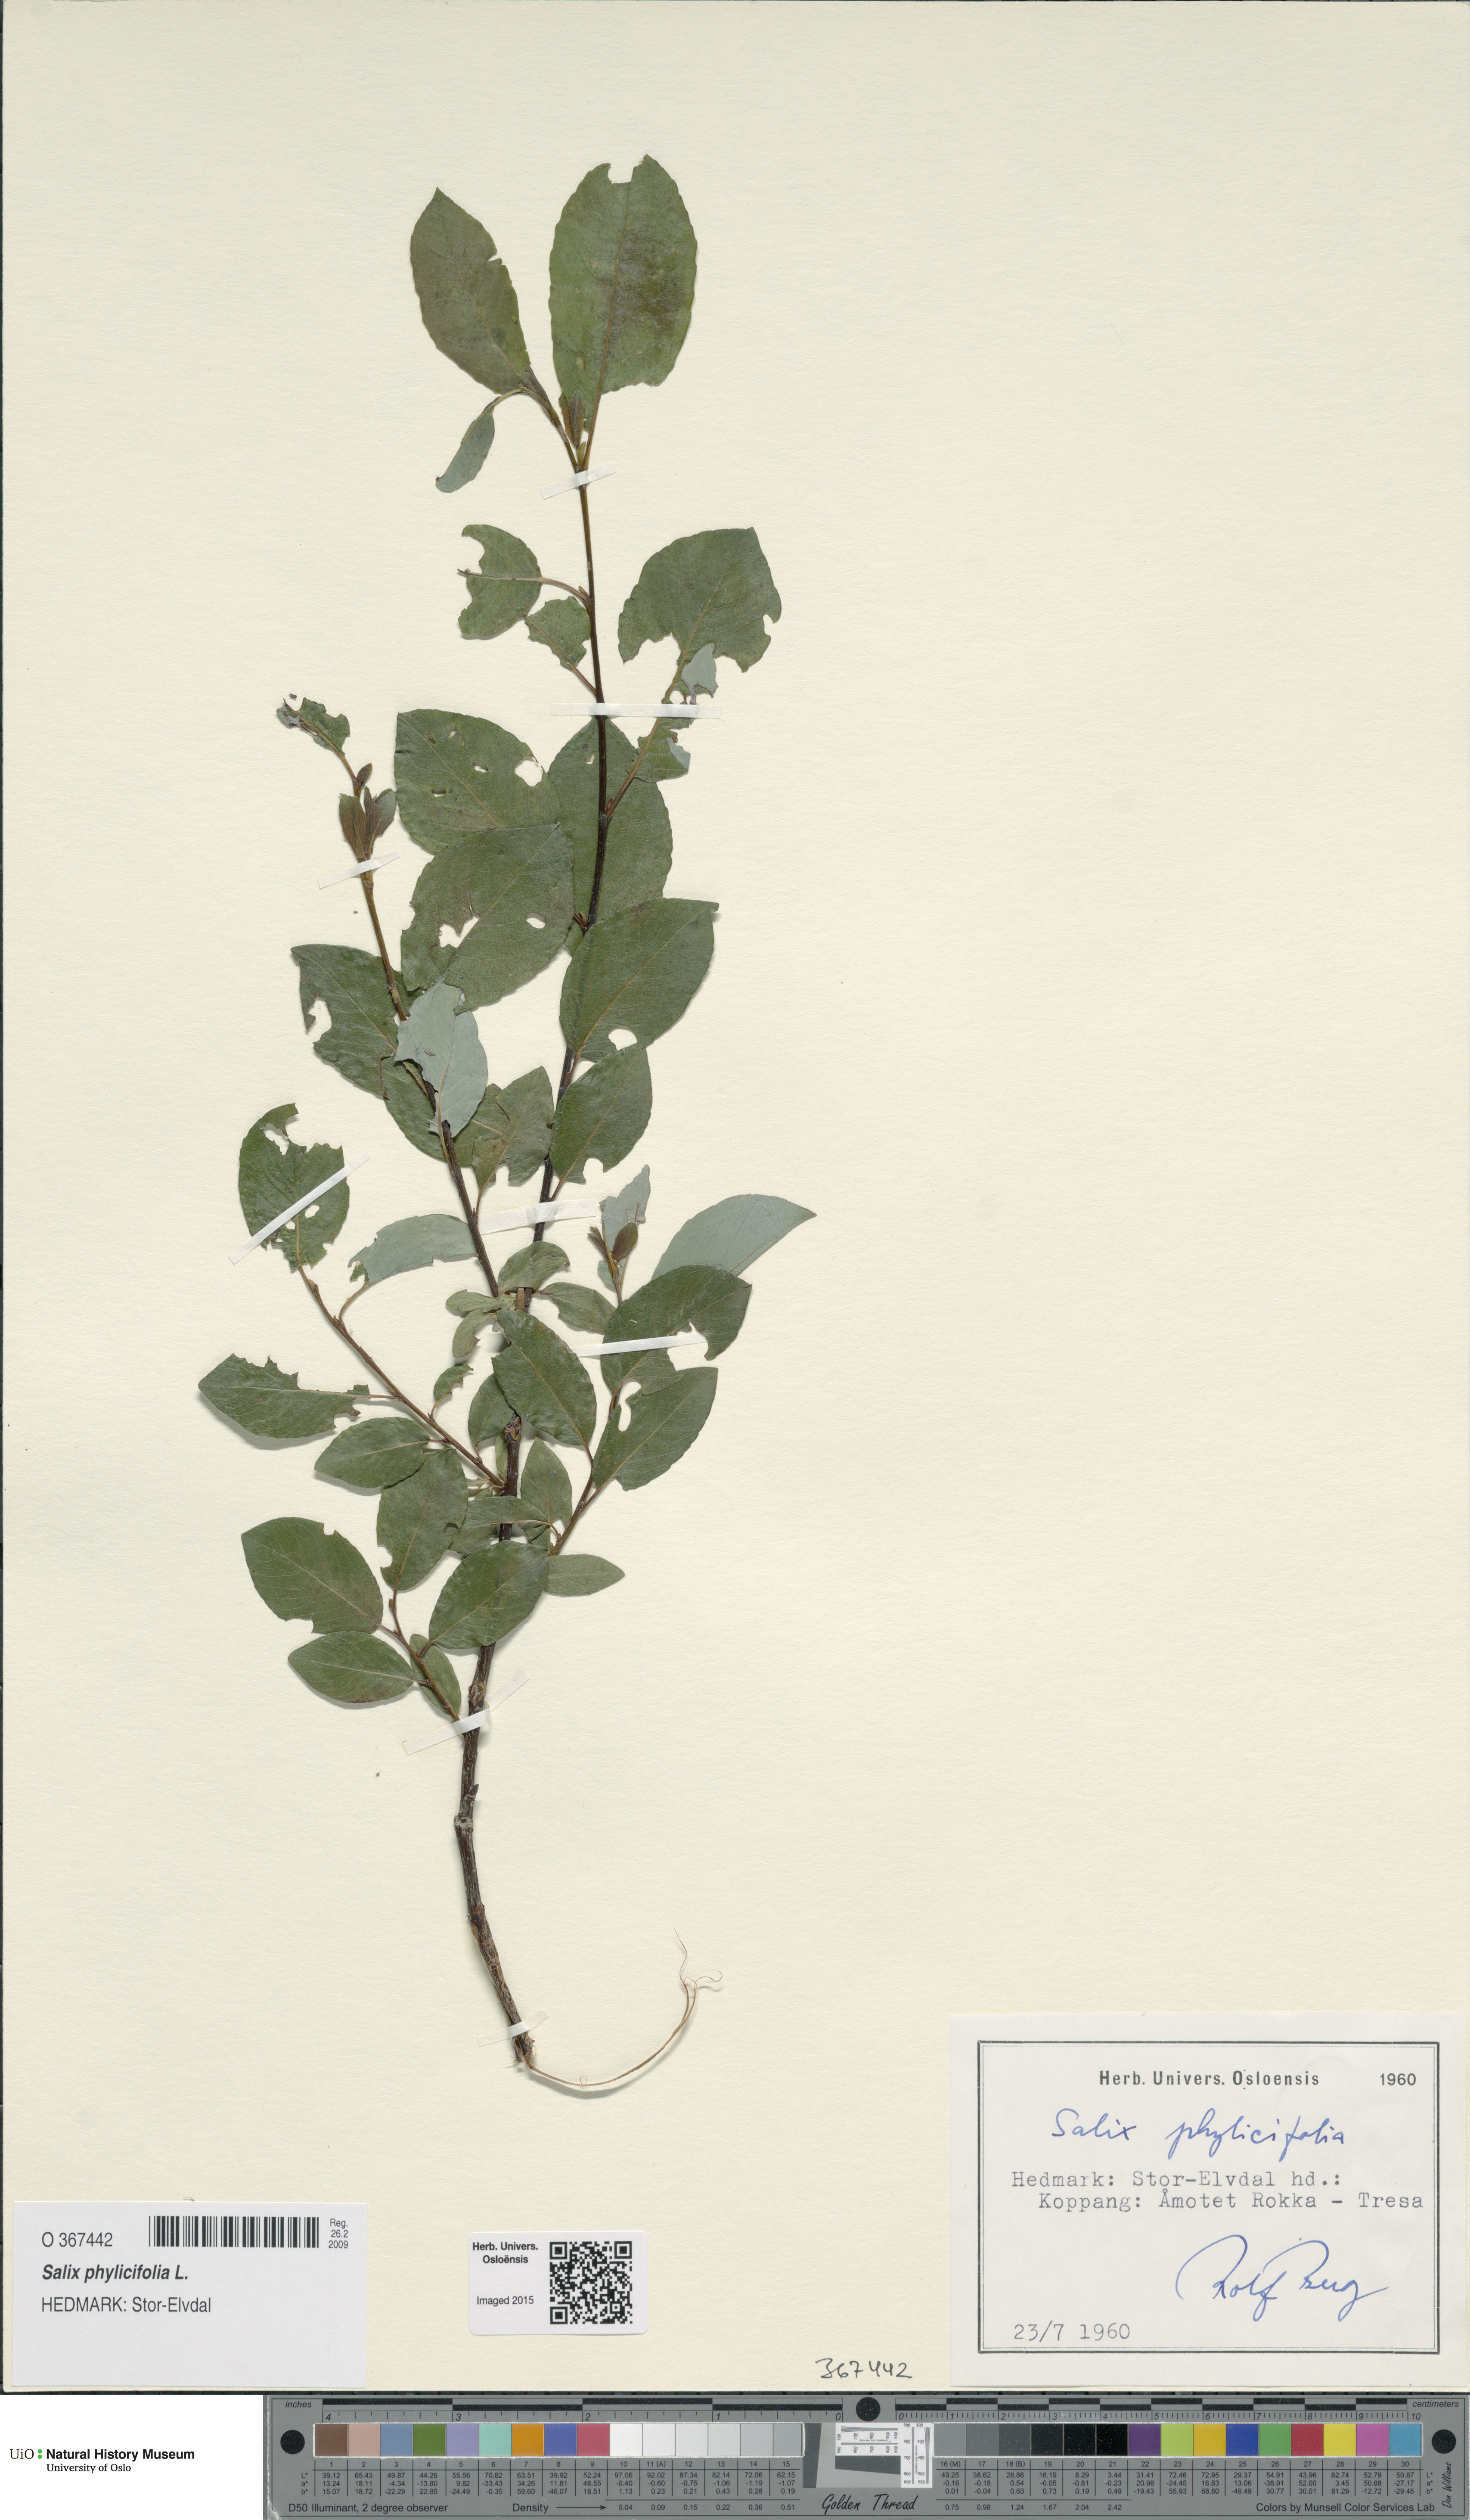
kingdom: Plantae
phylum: Tracheophyta
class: Magnoliopsida
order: Malpighiales
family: Salicaceae
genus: Salix
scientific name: Salix phylicifolia
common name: Tea-leaved willow
